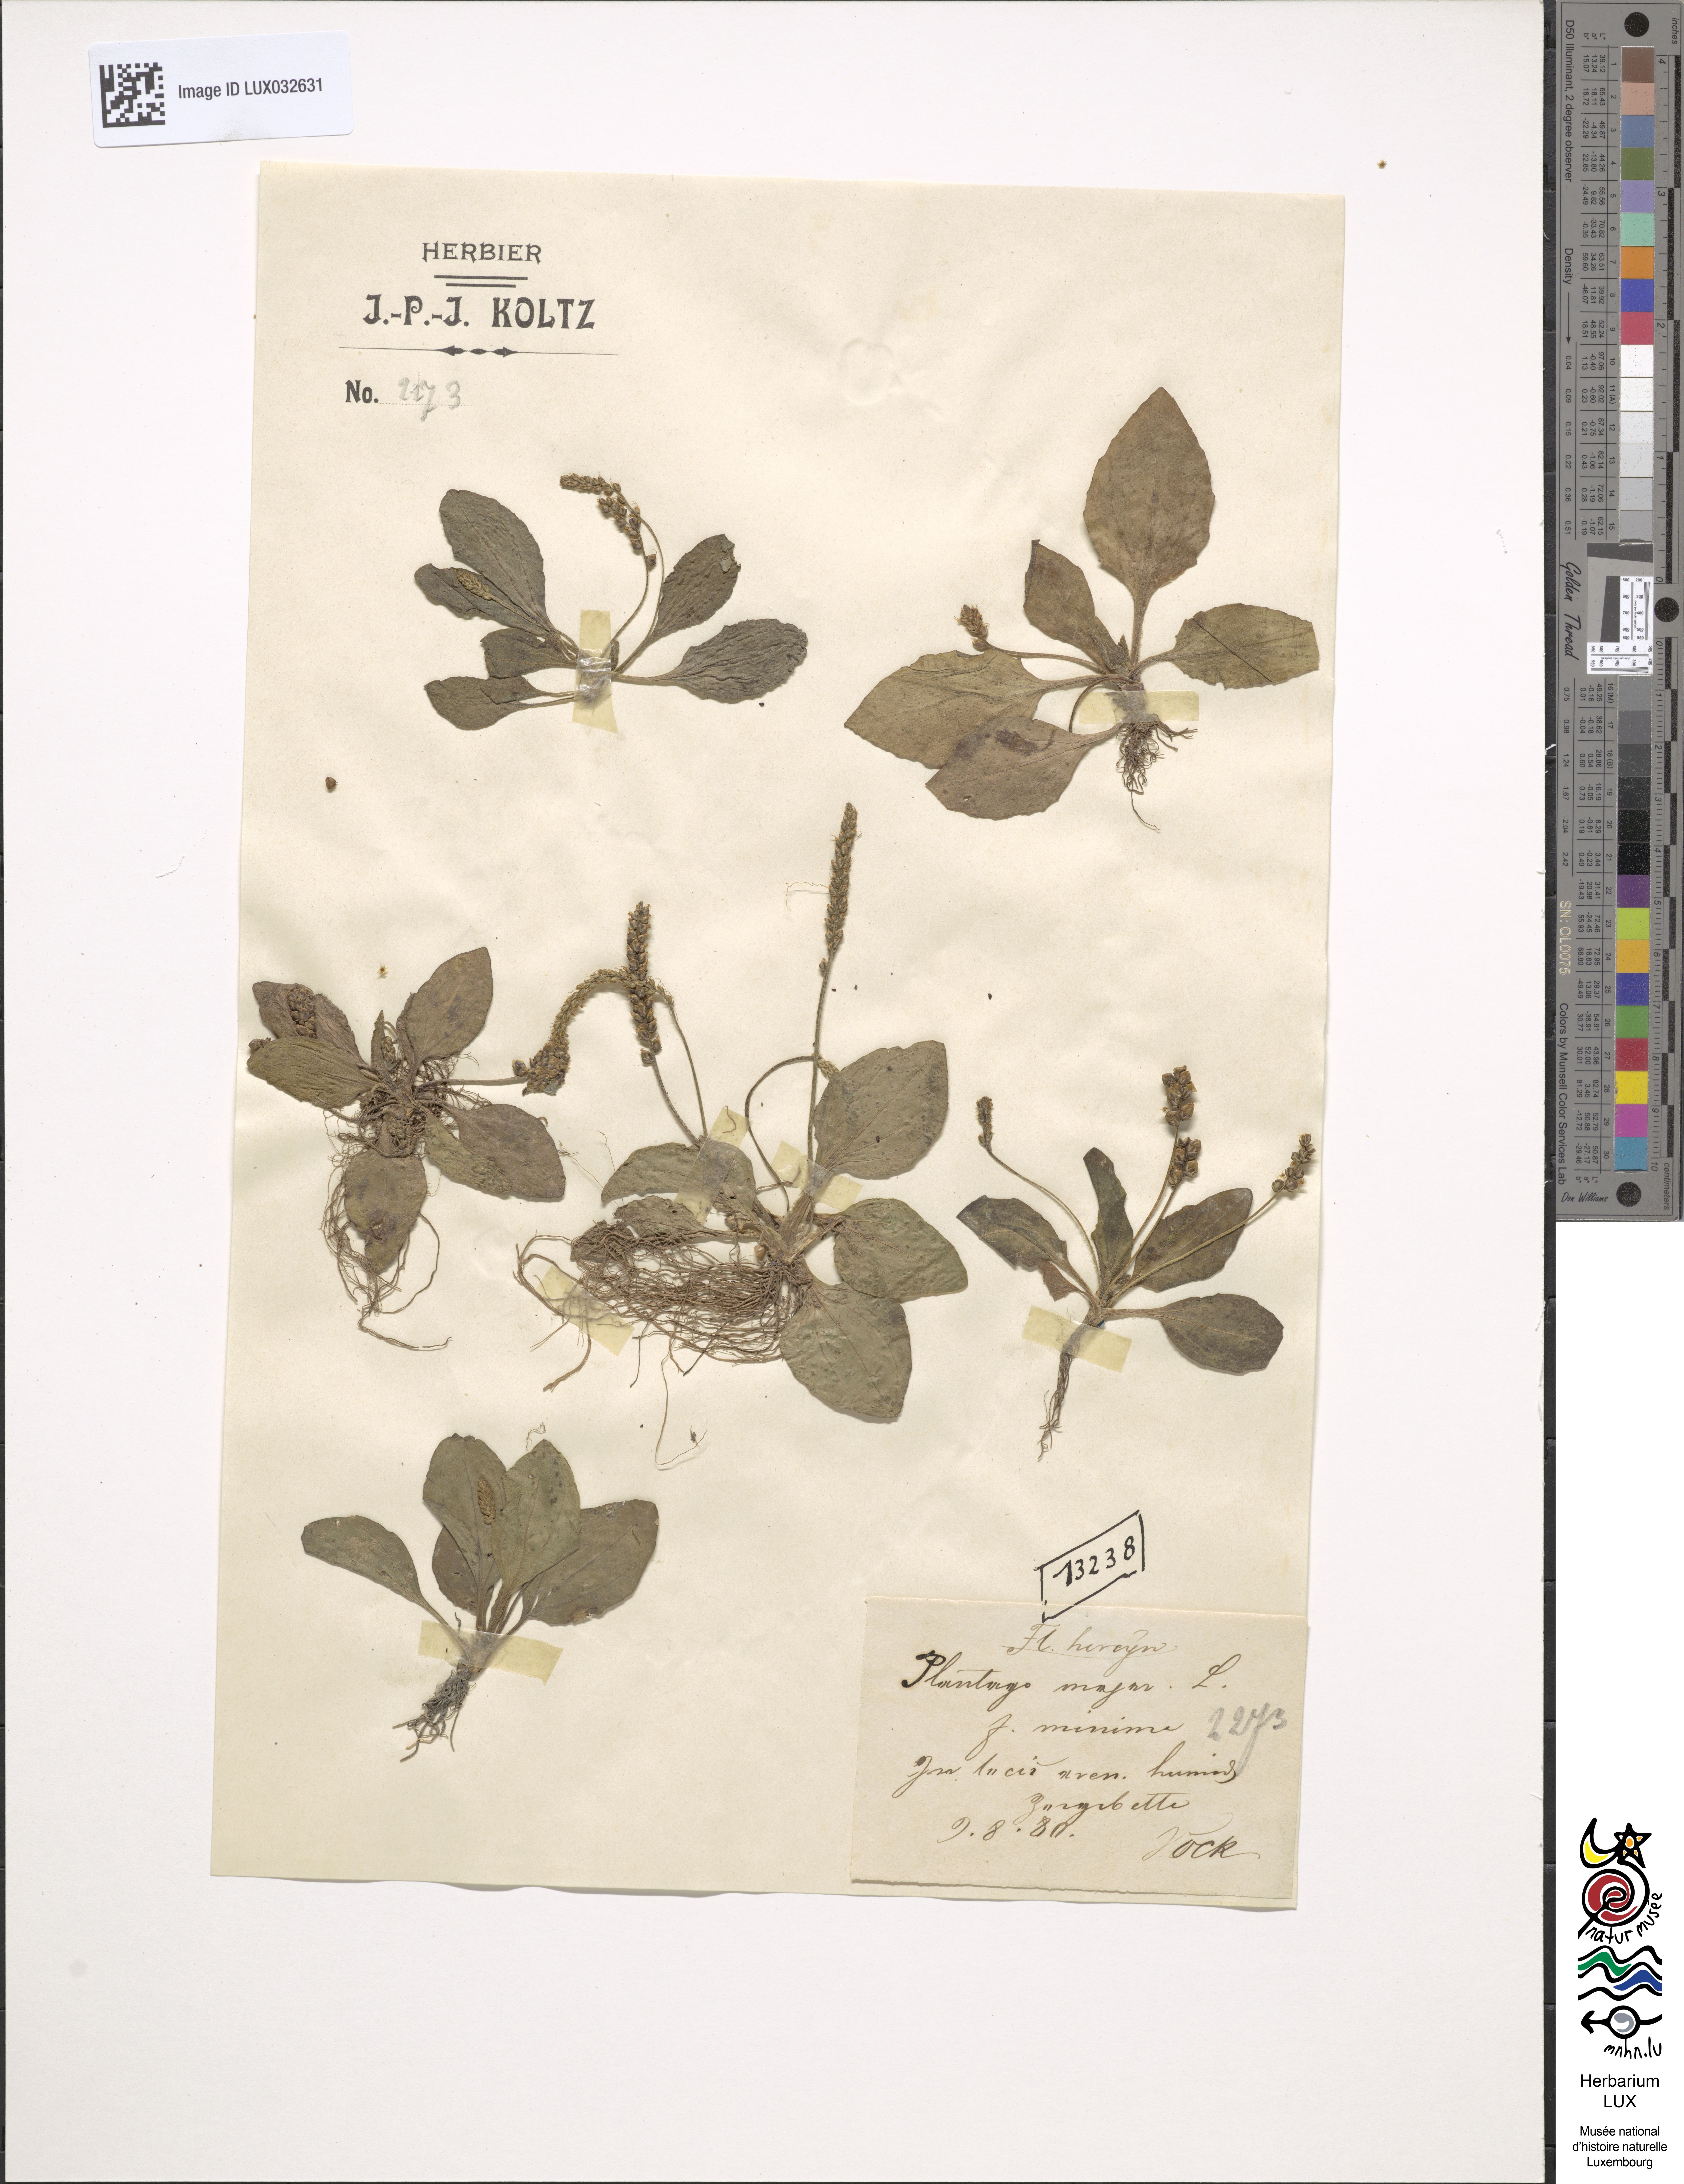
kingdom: Plantae
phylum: Tracheophyta
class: Magnoliopsida
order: Lamiales
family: Plantaginaceae
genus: Plantago
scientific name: Plantago major
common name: Common plantain
